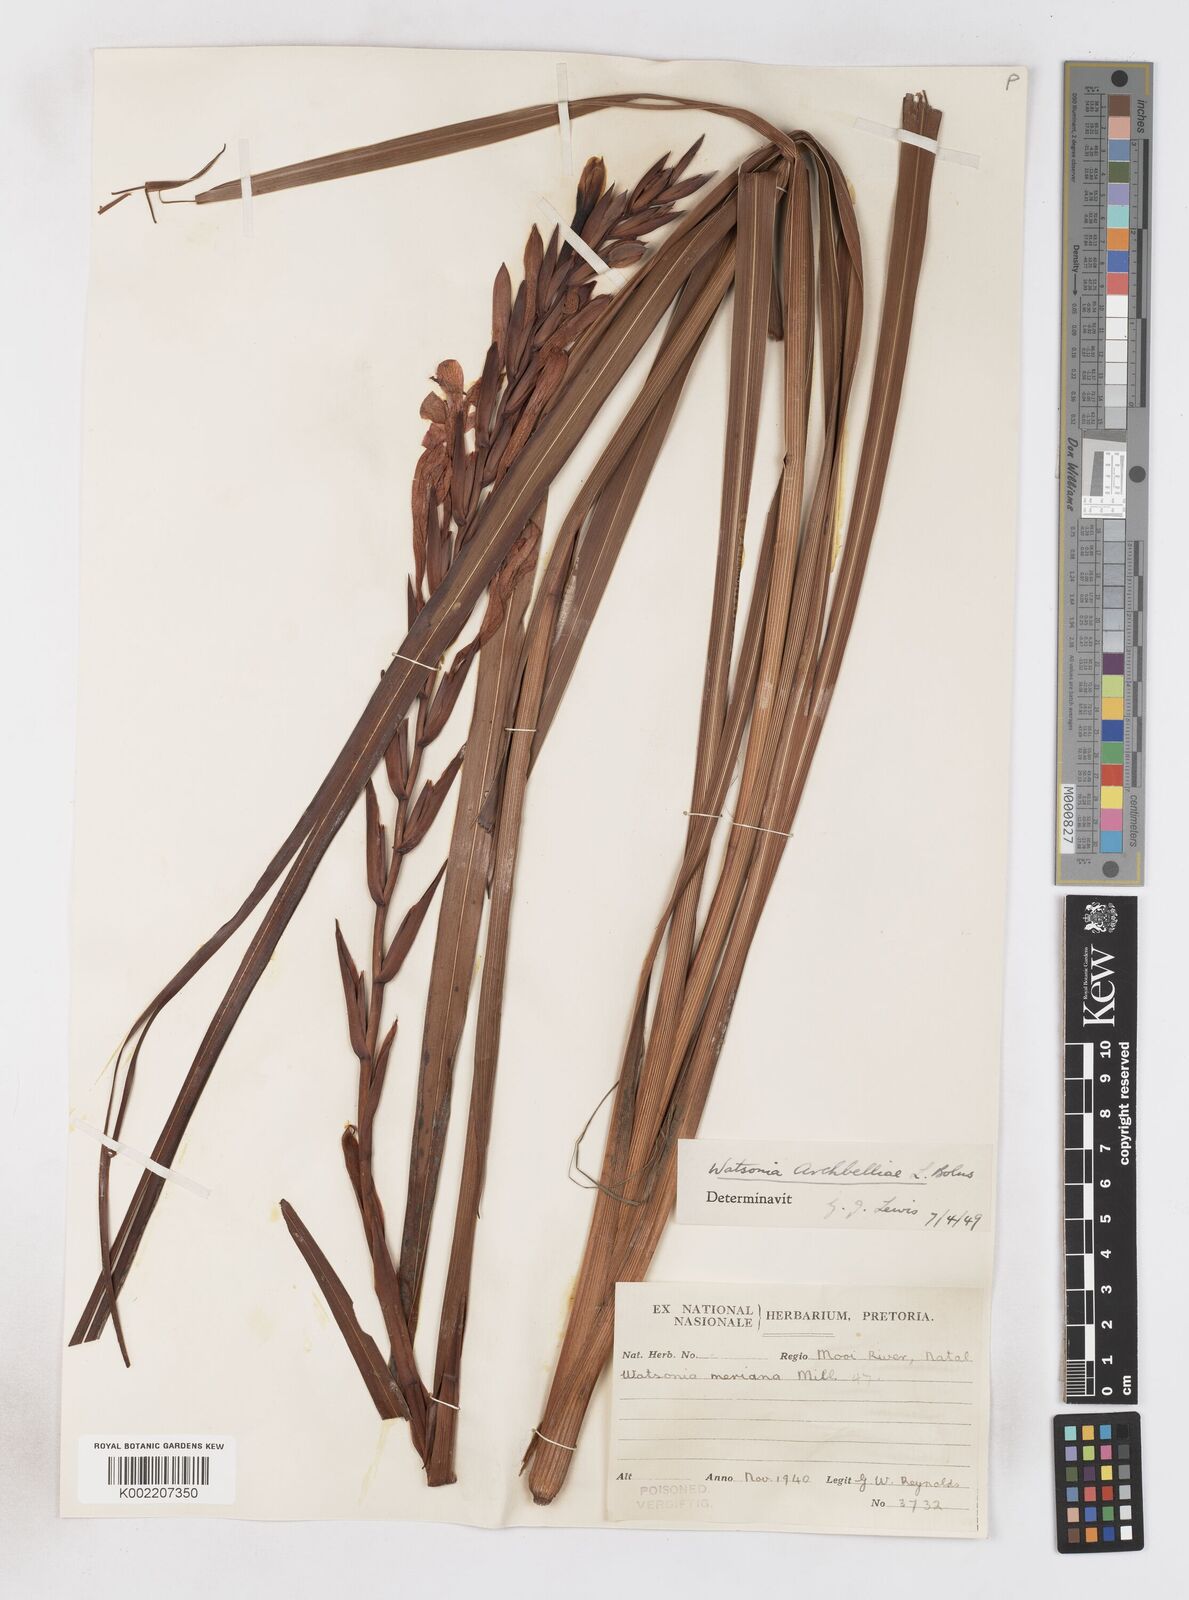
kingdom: Plantae
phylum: Tracheophyta
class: Liliopsida
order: Asparagales
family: Iridaceae
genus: Watsonia
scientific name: Watsonia pillansii
